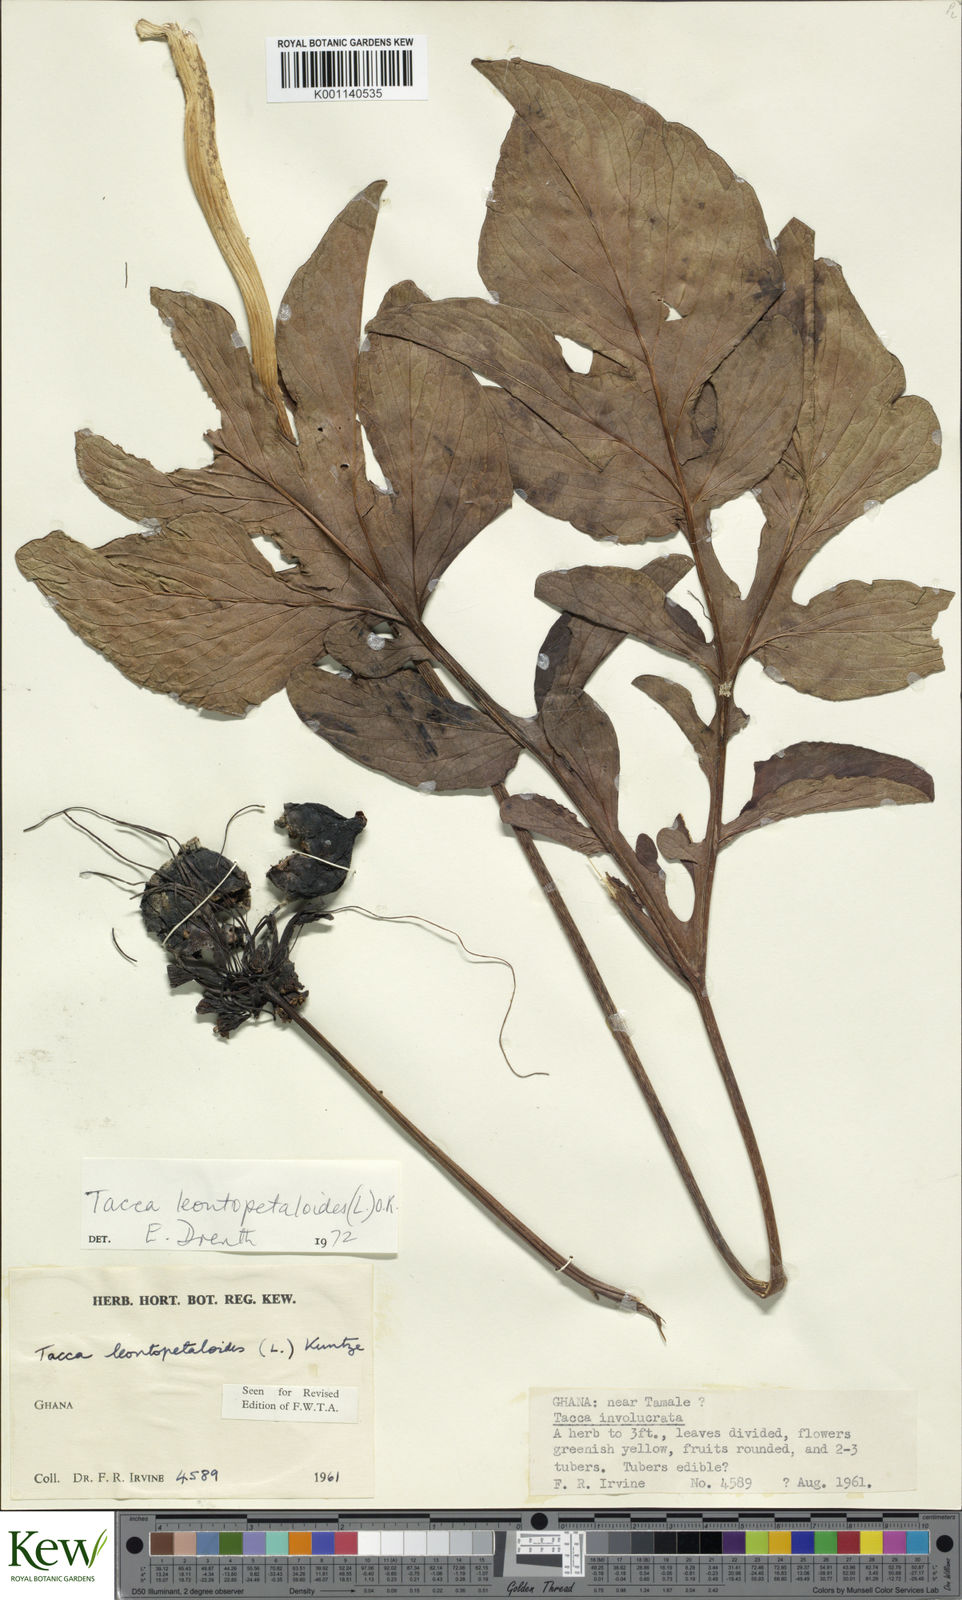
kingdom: Plantae
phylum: Tracheophyta
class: Liliopsida
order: Dioscoreales
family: Dioscoreaceae
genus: Tacca
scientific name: Tacca leontopetaloides
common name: Arrowroot
